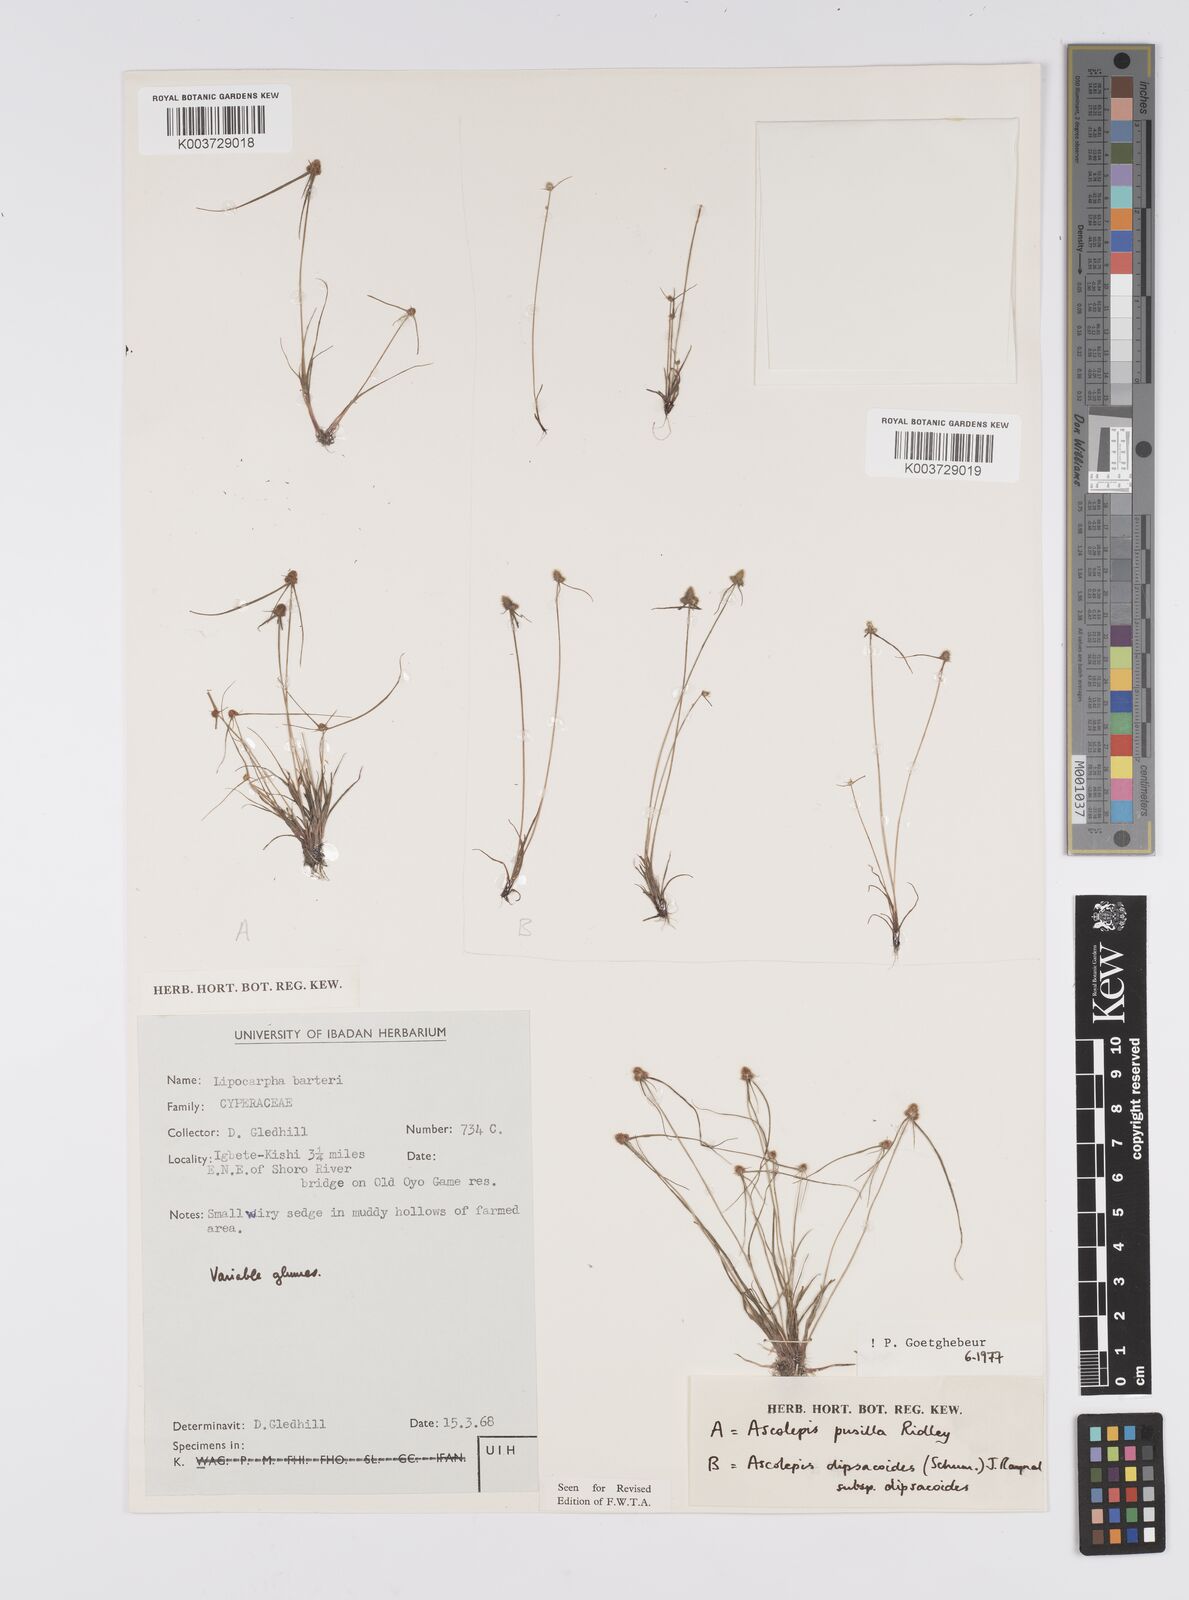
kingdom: Plantae
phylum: Tracheophyta
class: Liliopsida
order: Poales
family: Cyperaceae
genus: Cyperus
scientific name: Cyperus dipsacoides
